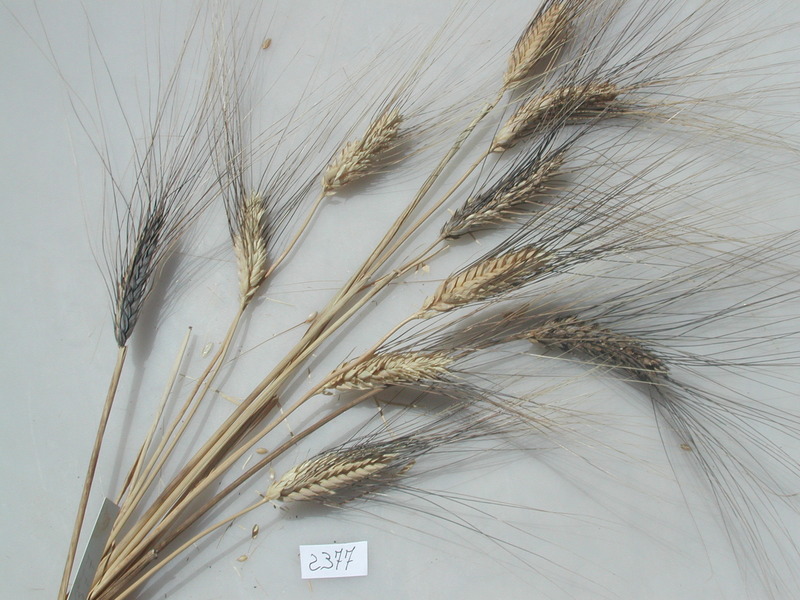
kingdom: Plantae
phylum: Tracheophyta
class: Liliopsida
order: Poales
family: Poaceae
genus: Triticum
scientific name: Triticum turgidum
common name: Wheat
